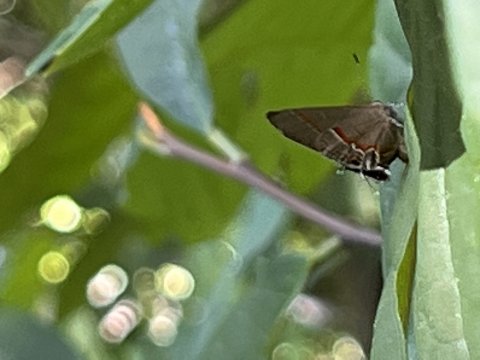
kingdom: Animalia
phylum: Arthropoda
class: Insecta
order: Lepidoptera
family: Lycaenidae
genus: Calycopis
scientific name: Calycopis cecrops
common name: Red-banded Hairstreak
